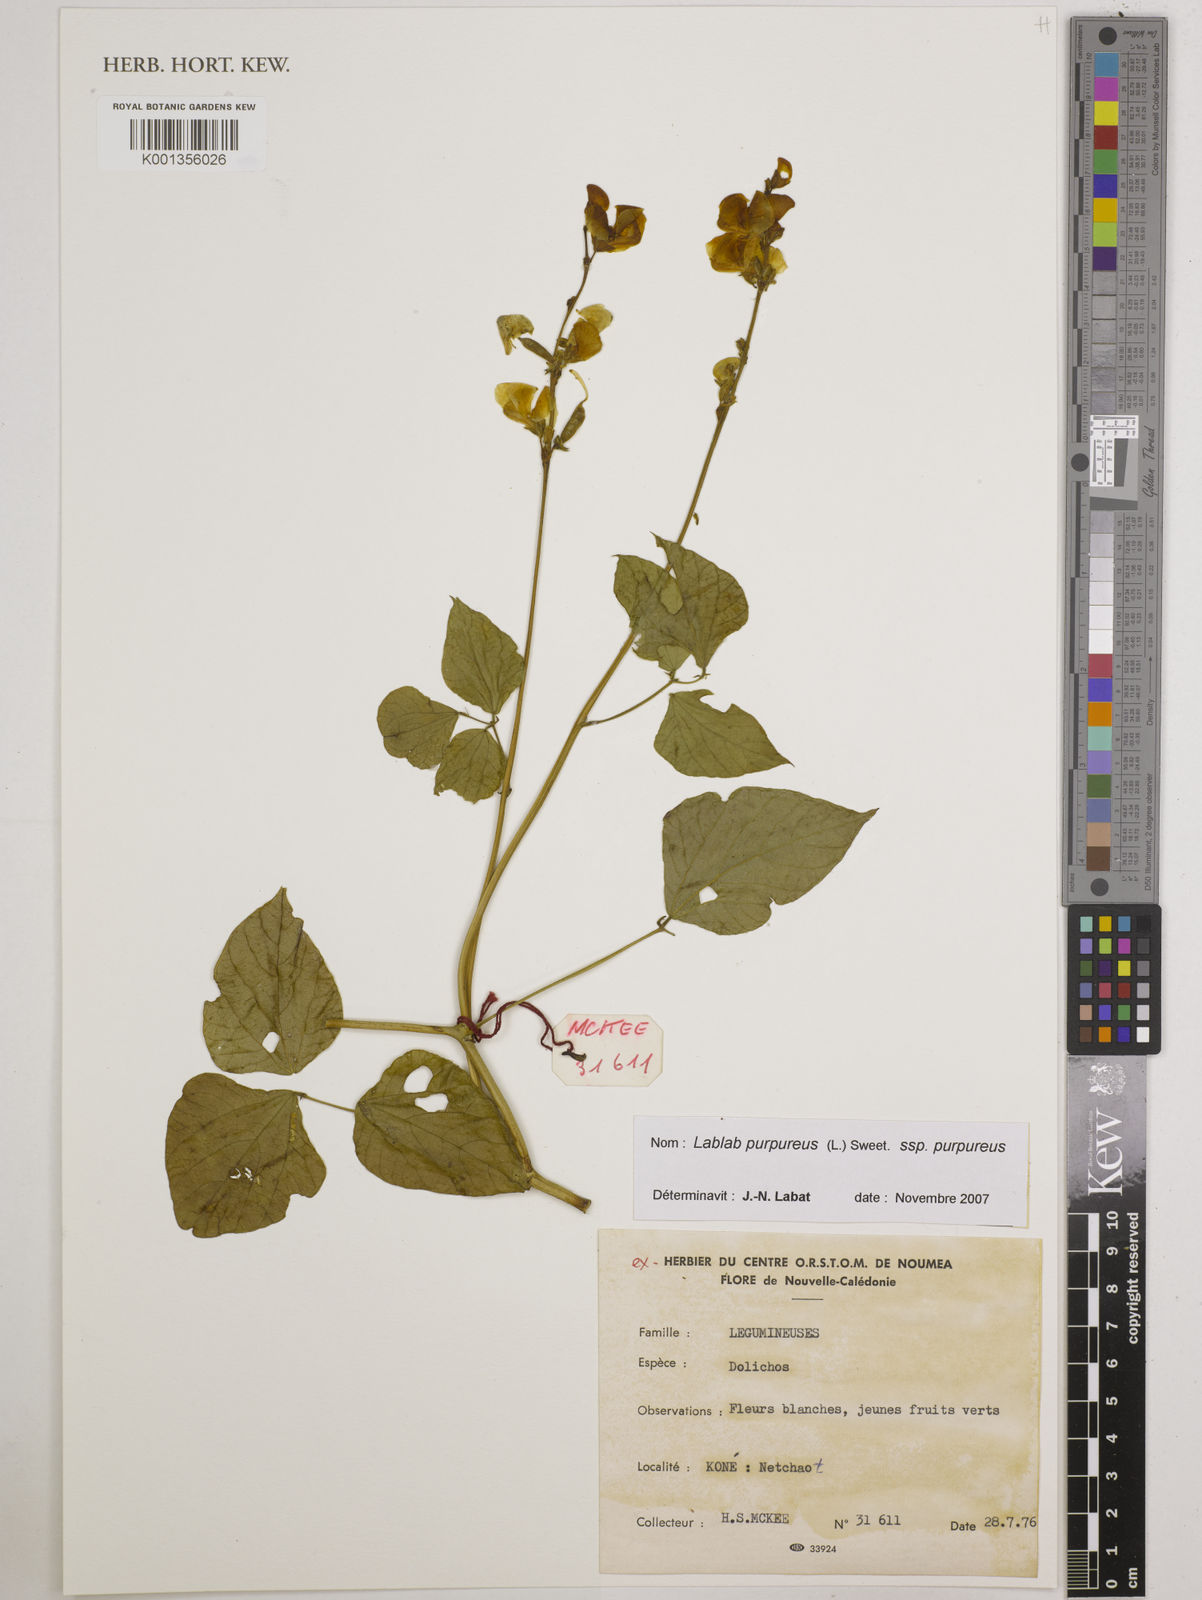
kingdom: Plantae
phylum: Tracheophyta
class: Magnoliopsida
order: Fabales
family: Fabaceae
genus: Lablab
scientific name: Lablab purpureus
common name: Lablab-bean
